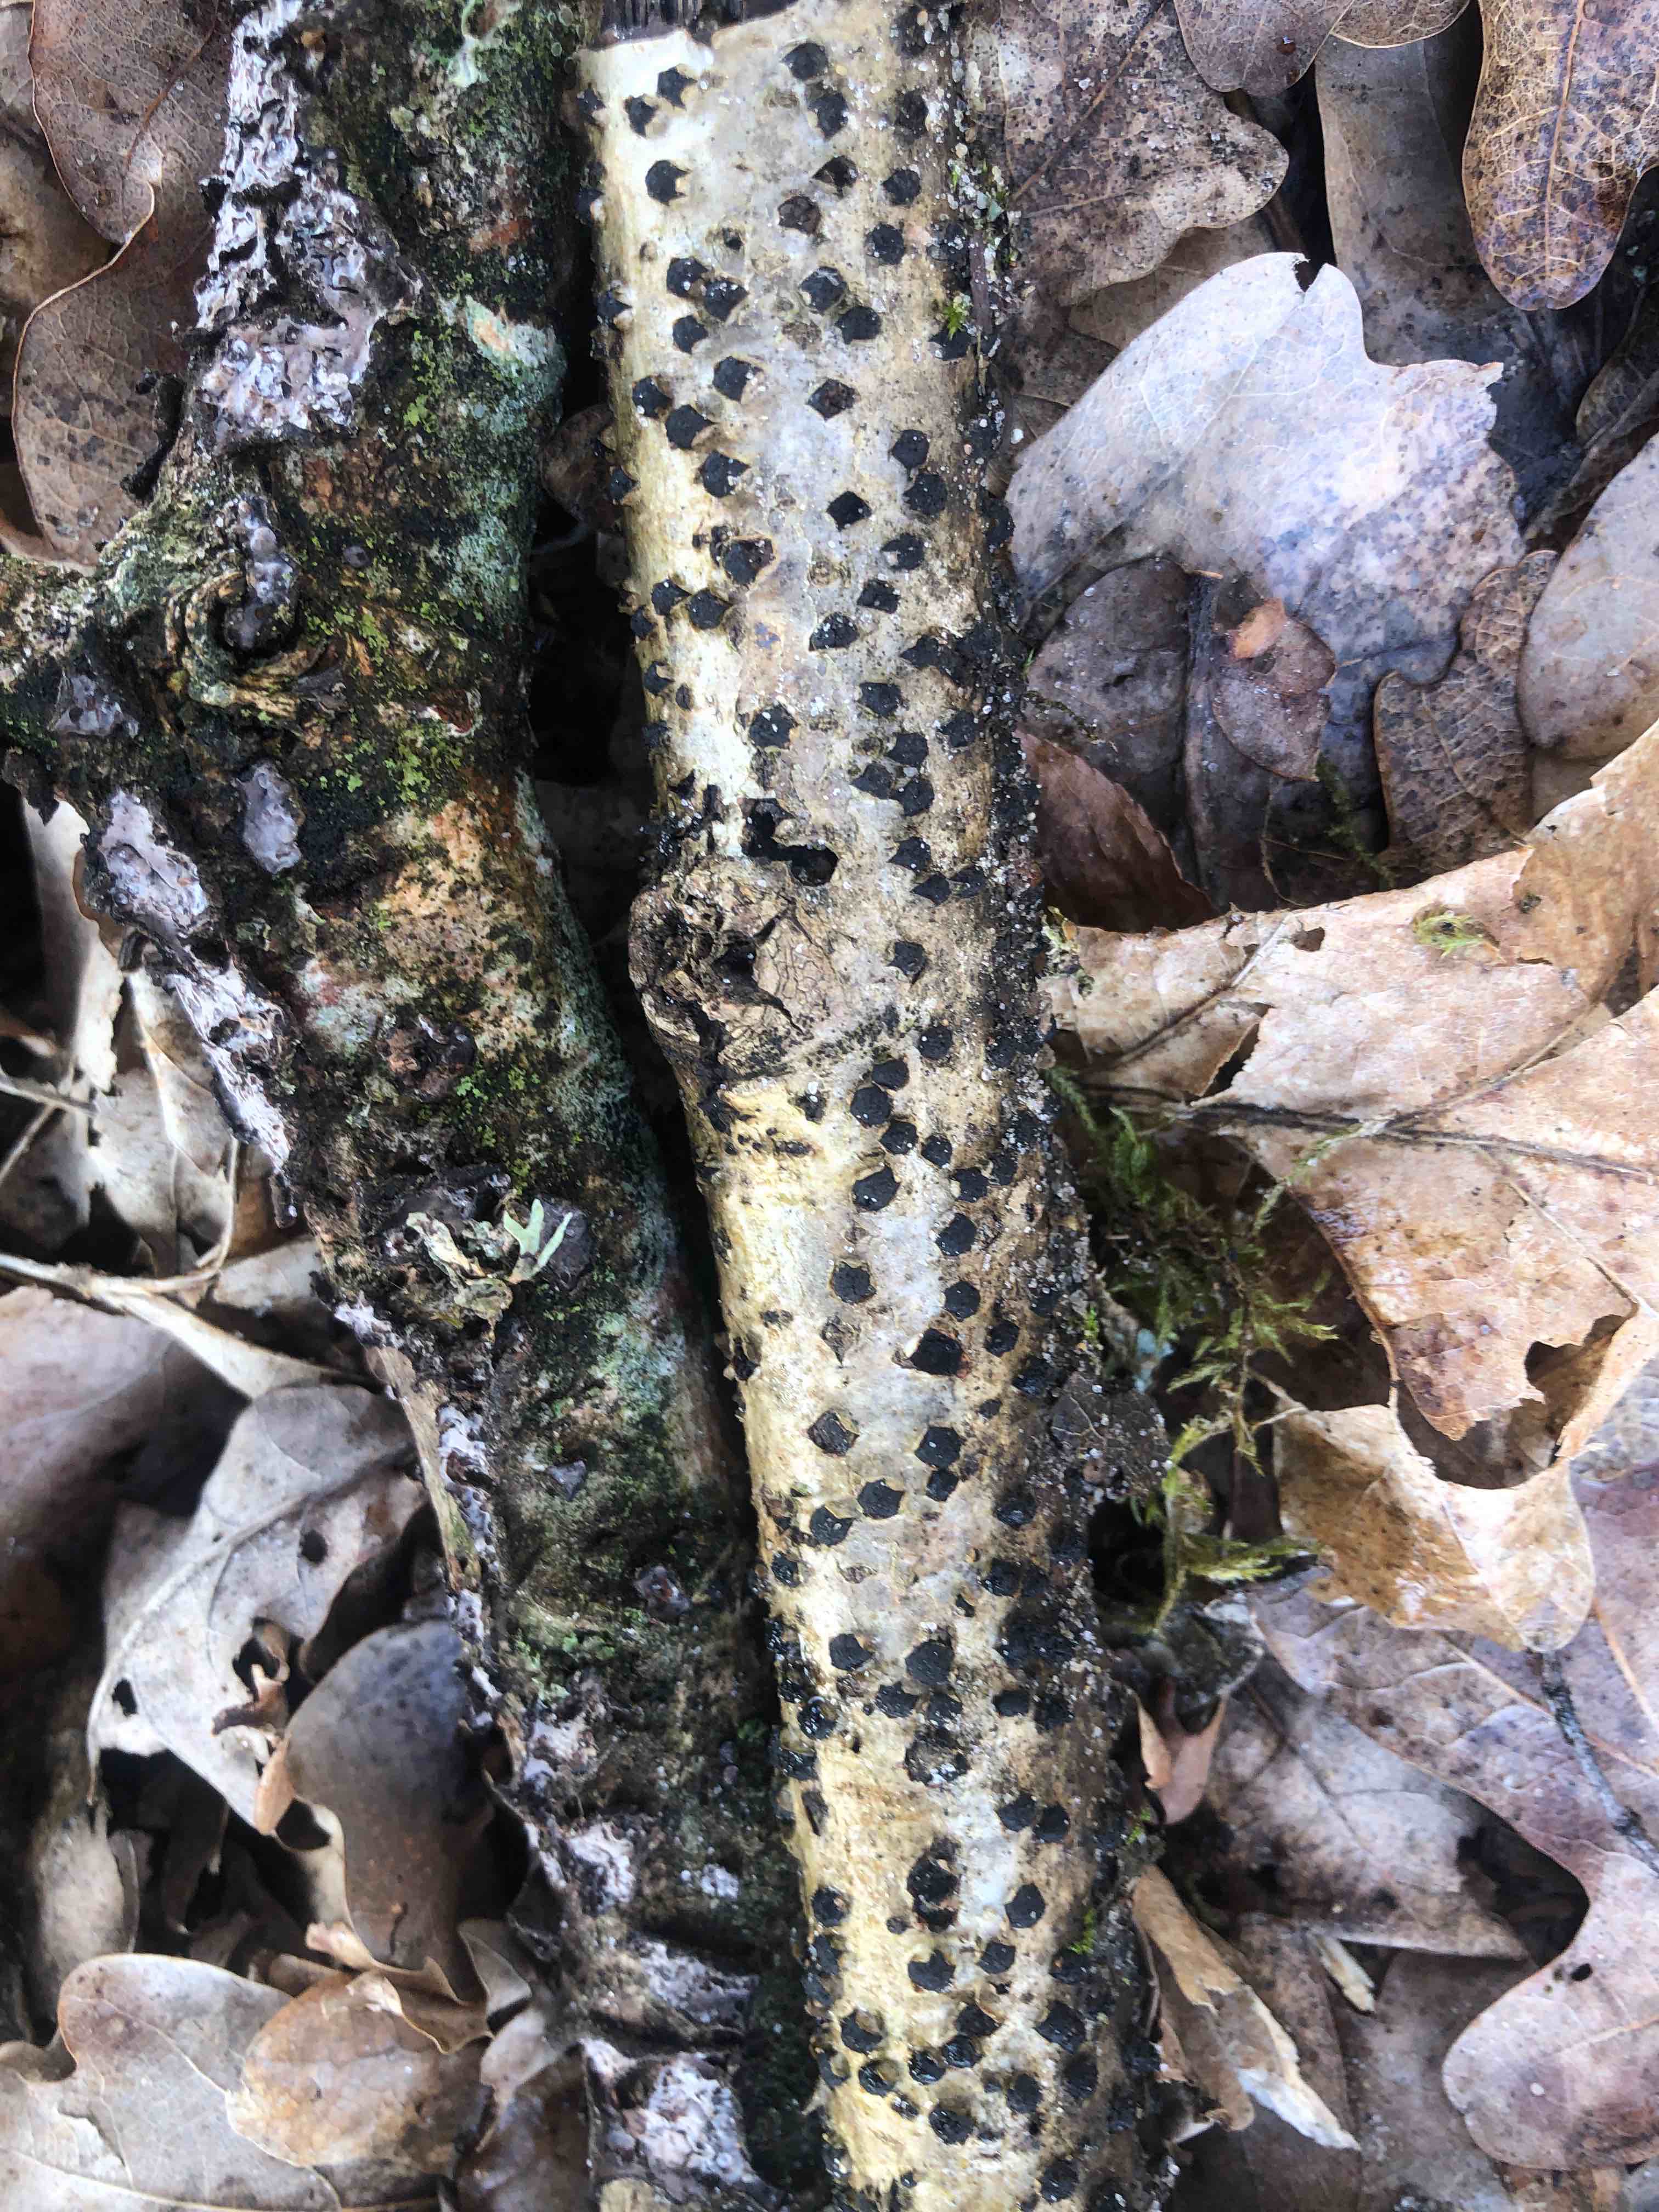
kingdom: Fungi
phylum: Ascomycota
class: Sordariomycetes
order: Xylariales
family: Diatrypaceae
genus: Diatrypella
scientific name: Diatrypella quercina
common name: ege-kulskorpe
